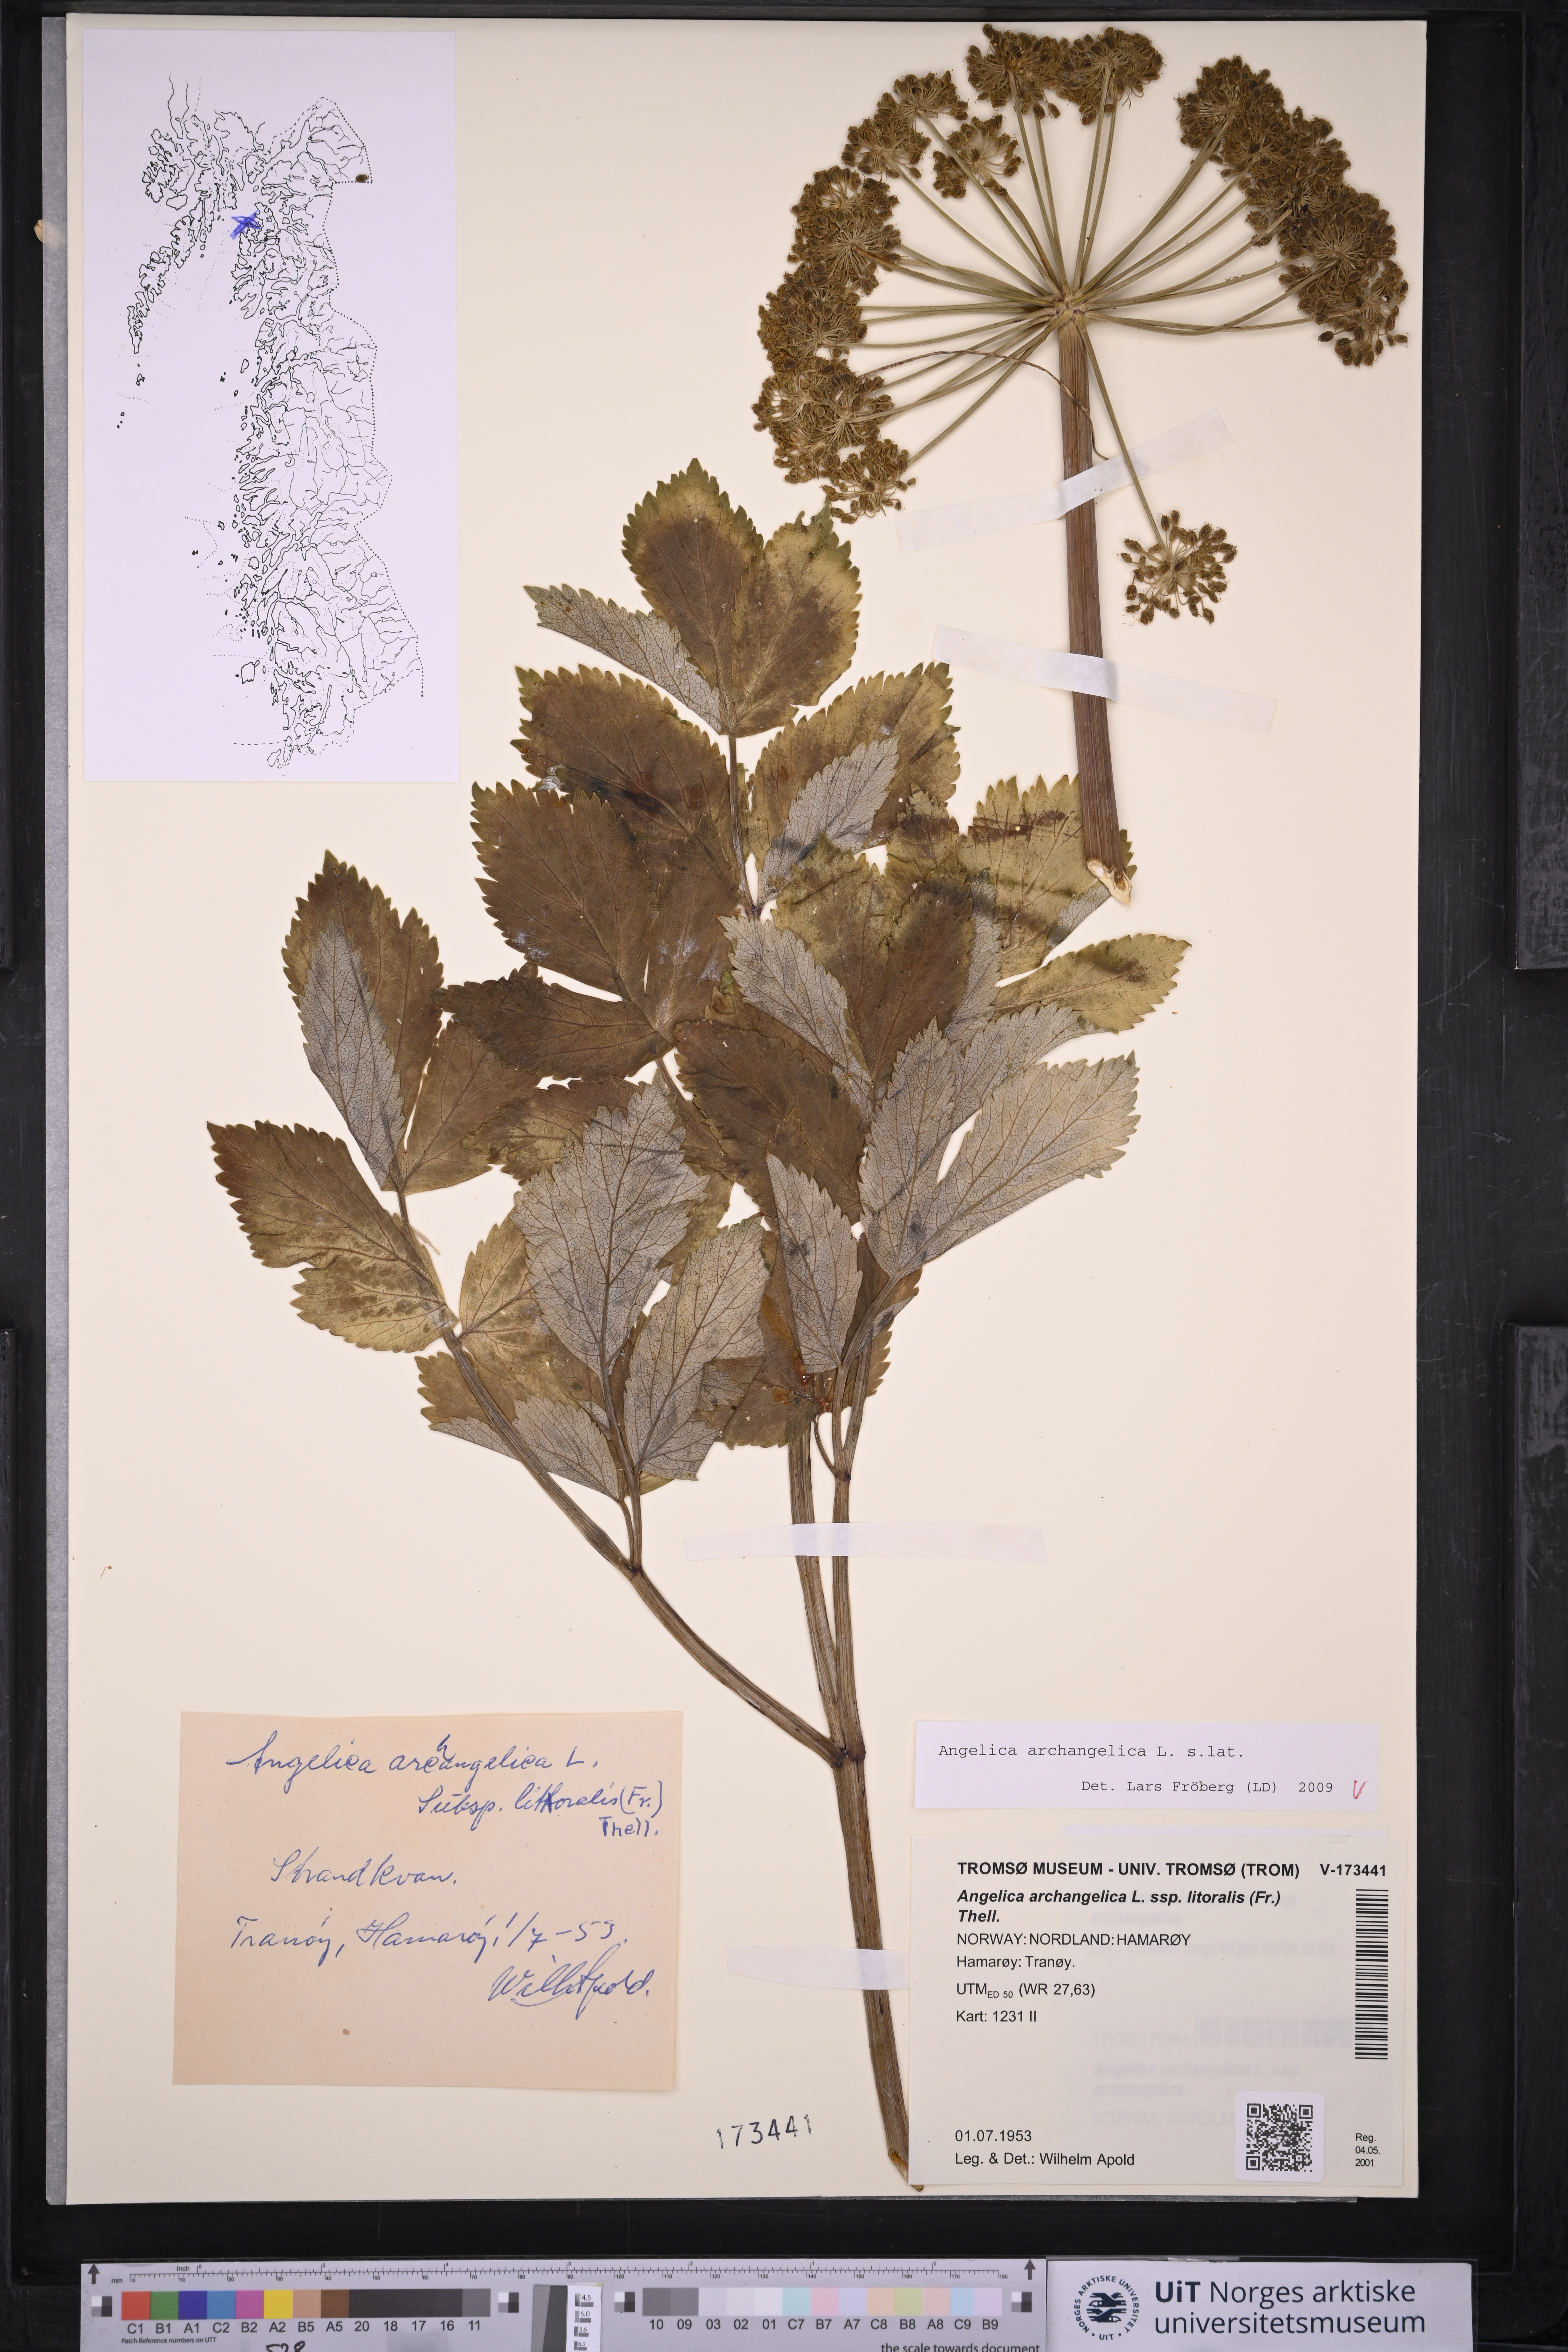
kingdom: Plantae
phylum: Tracheophyta
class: Magnoliopsida
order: Apiales
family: Apiaceae
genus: Angelica
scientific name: Angelica archangelica
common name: Garden angelica
